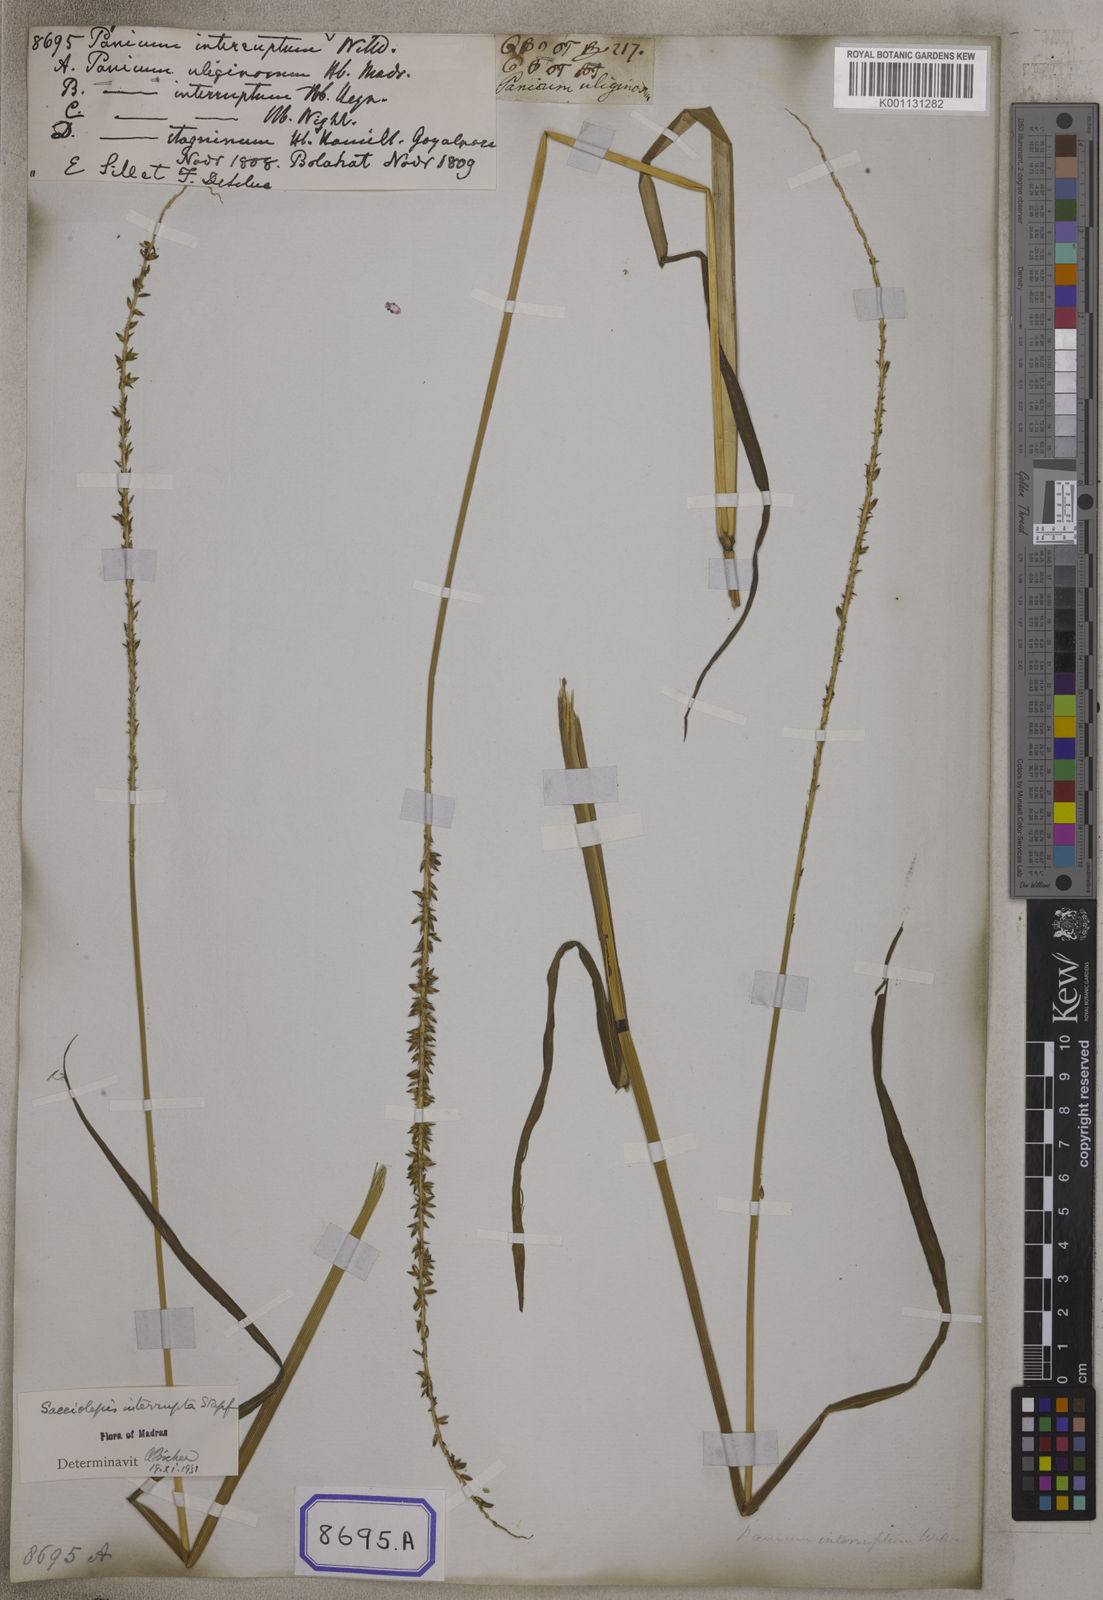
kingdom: Plantae
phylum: Tracheophyta
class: Liliopsida
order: Poales
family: Poaceae
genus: Sacciolepis
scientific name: Sacciolepis interrupta
